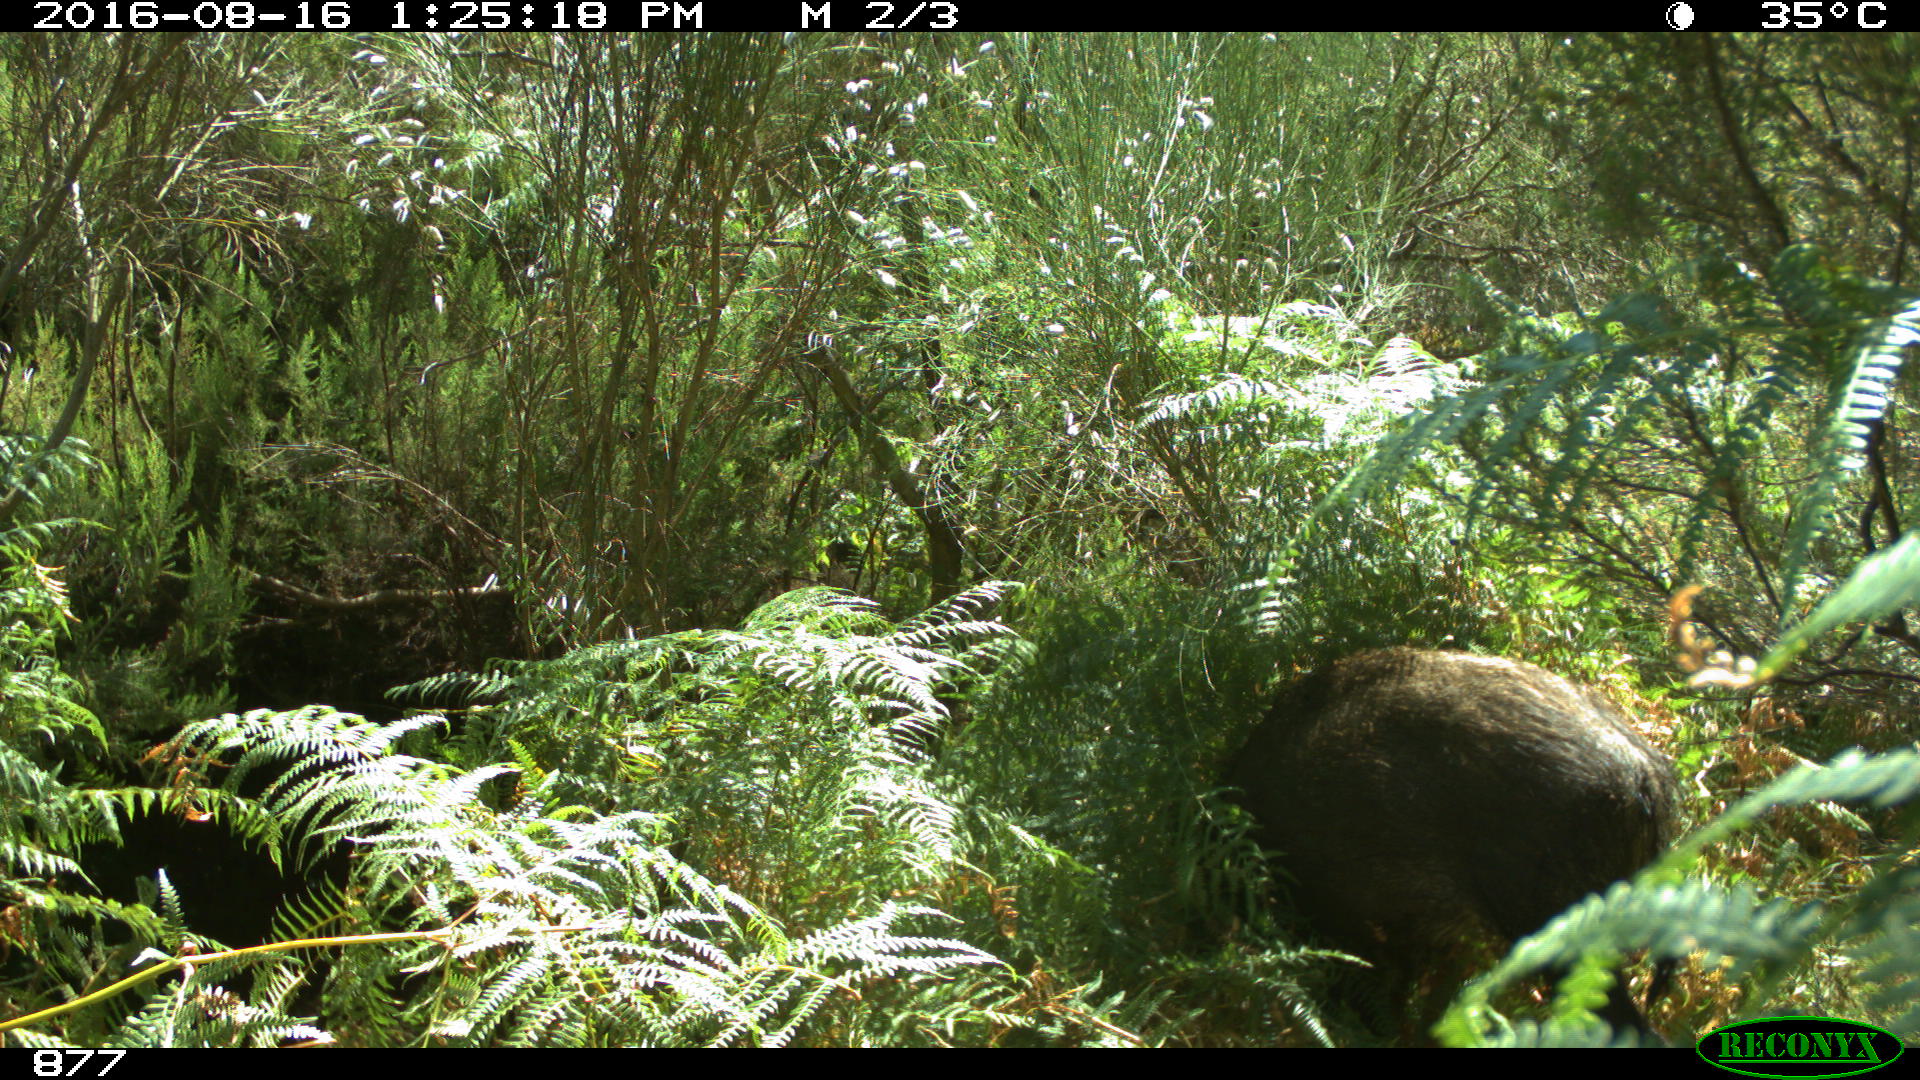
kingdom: Animalia
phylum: Chordata
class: Mammalia
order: Artiodactyla
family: Suidae
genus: Sus
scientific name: Sus scrofa
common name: Wild boar
